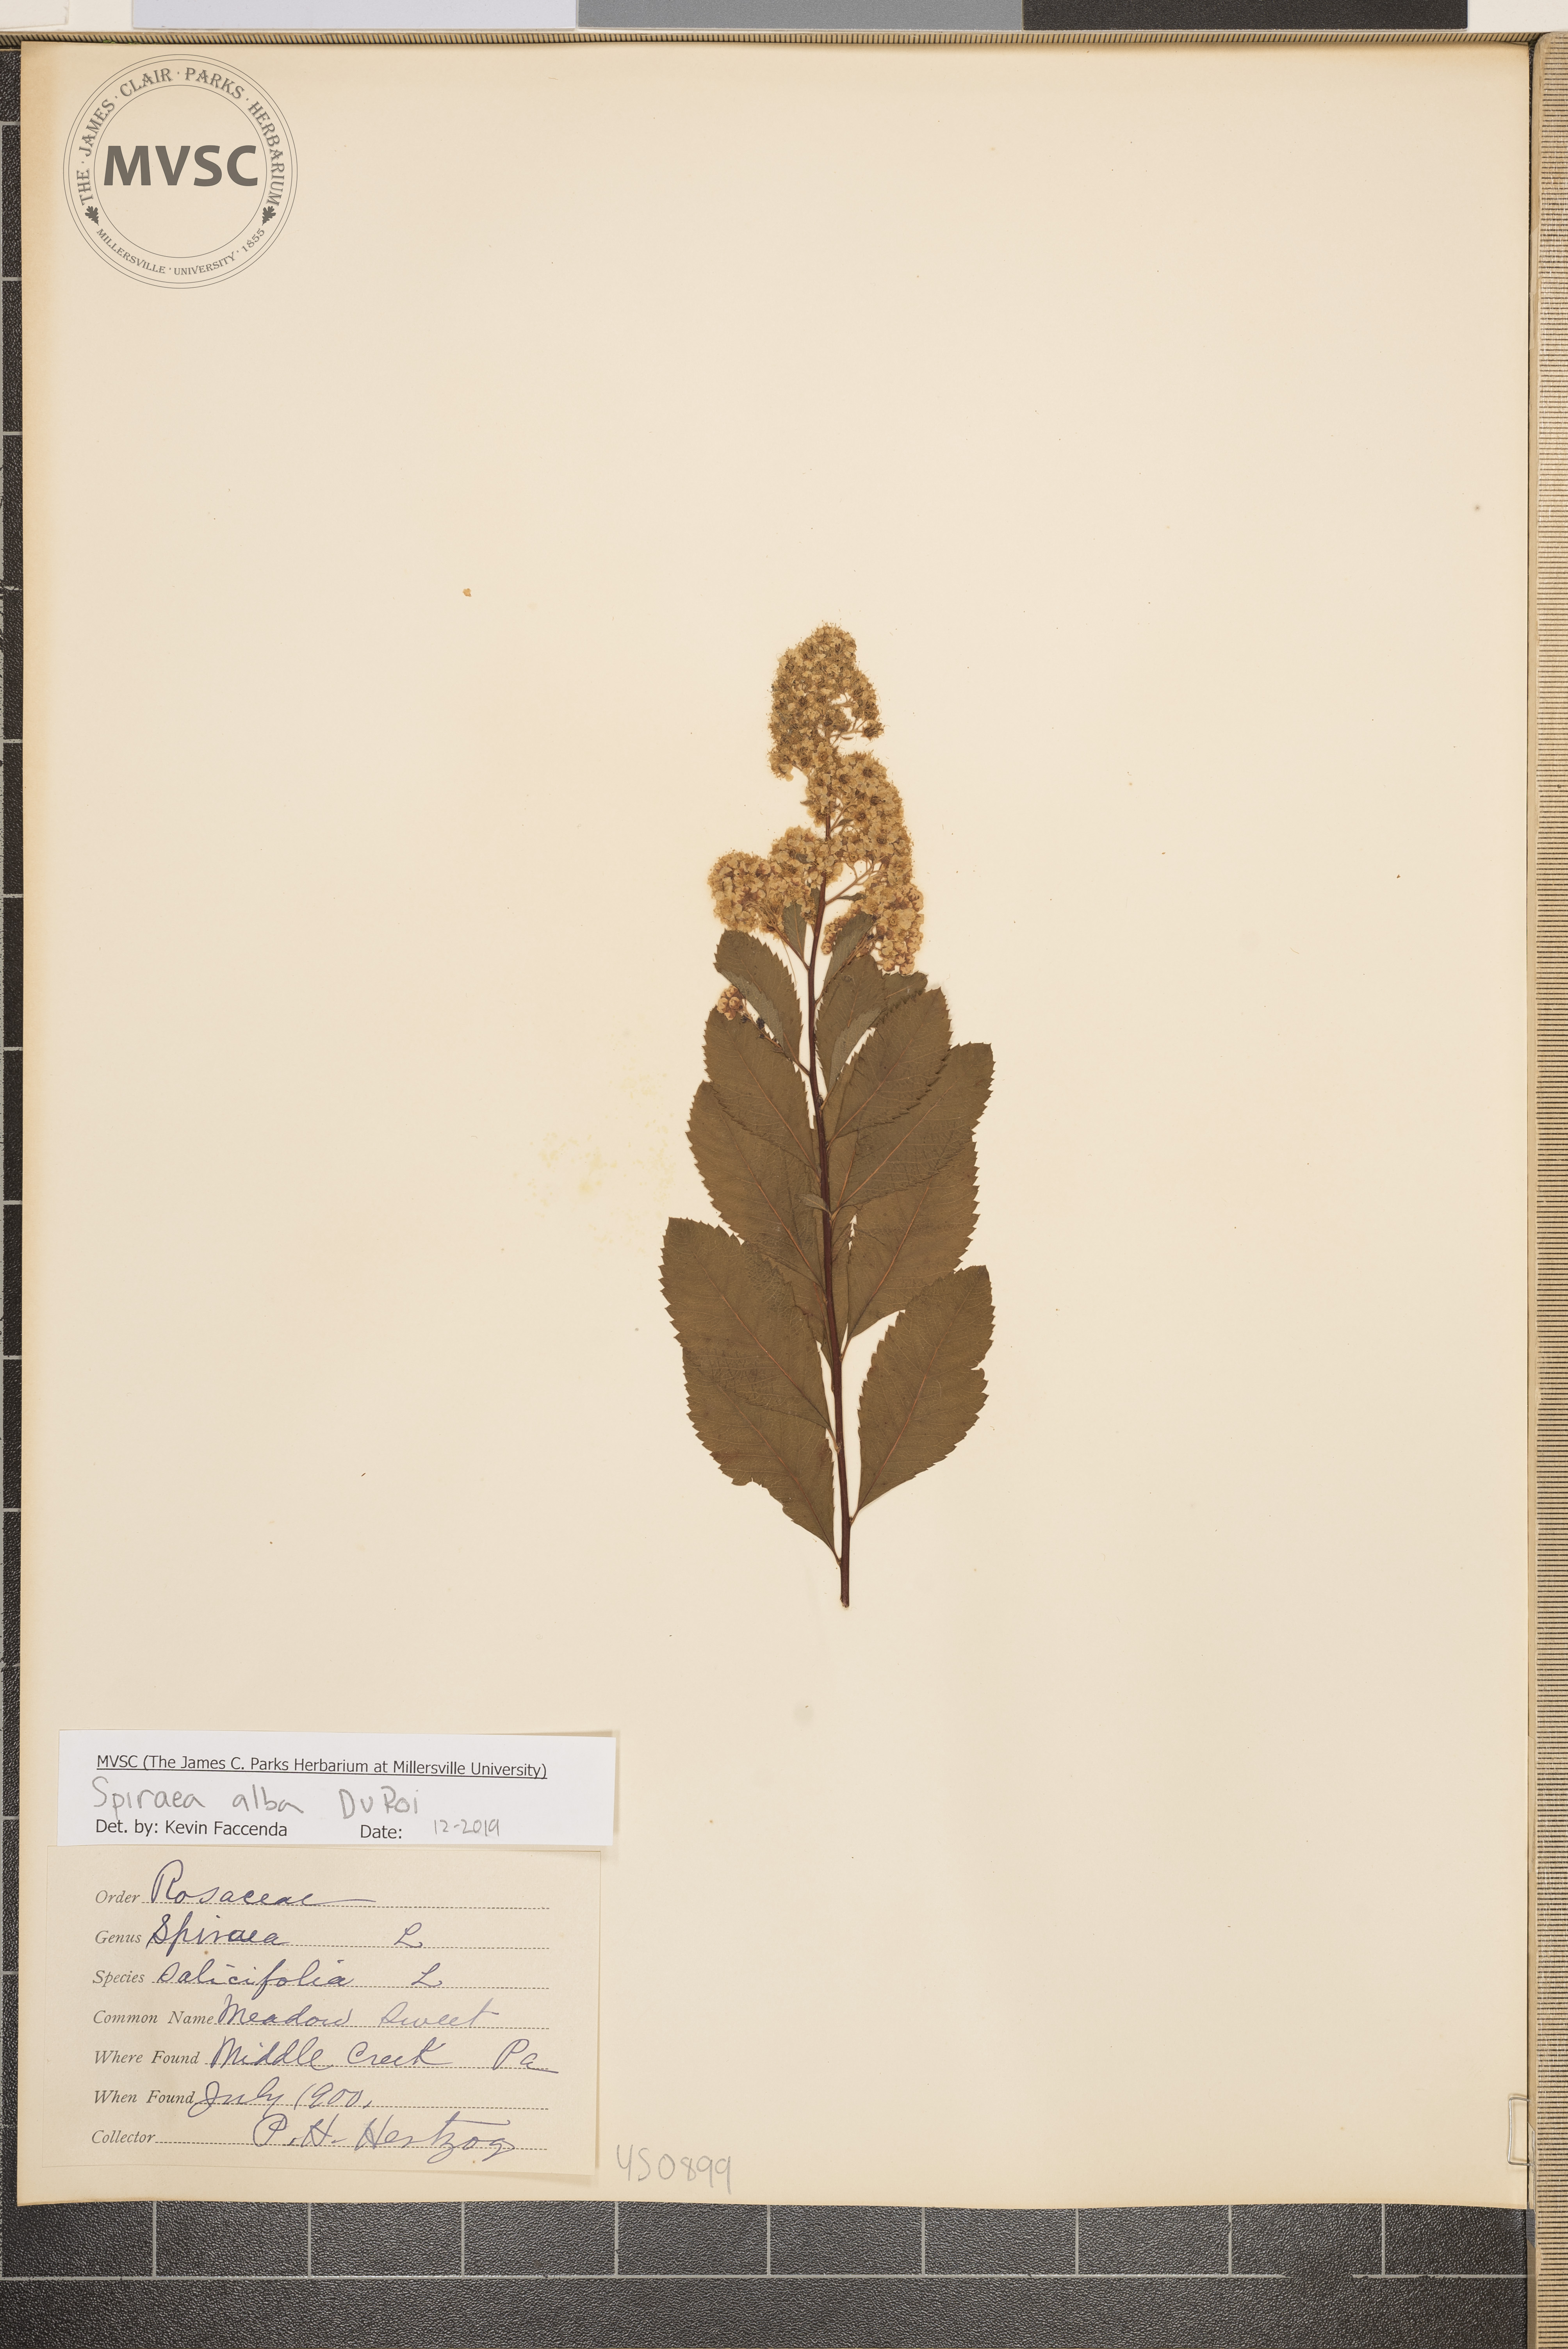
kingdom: Plantae
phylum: Tracheophyta
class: Magnoliopsida
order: Rosales
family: Rosaceae
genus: Spiraea
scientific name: Spiraea alba
